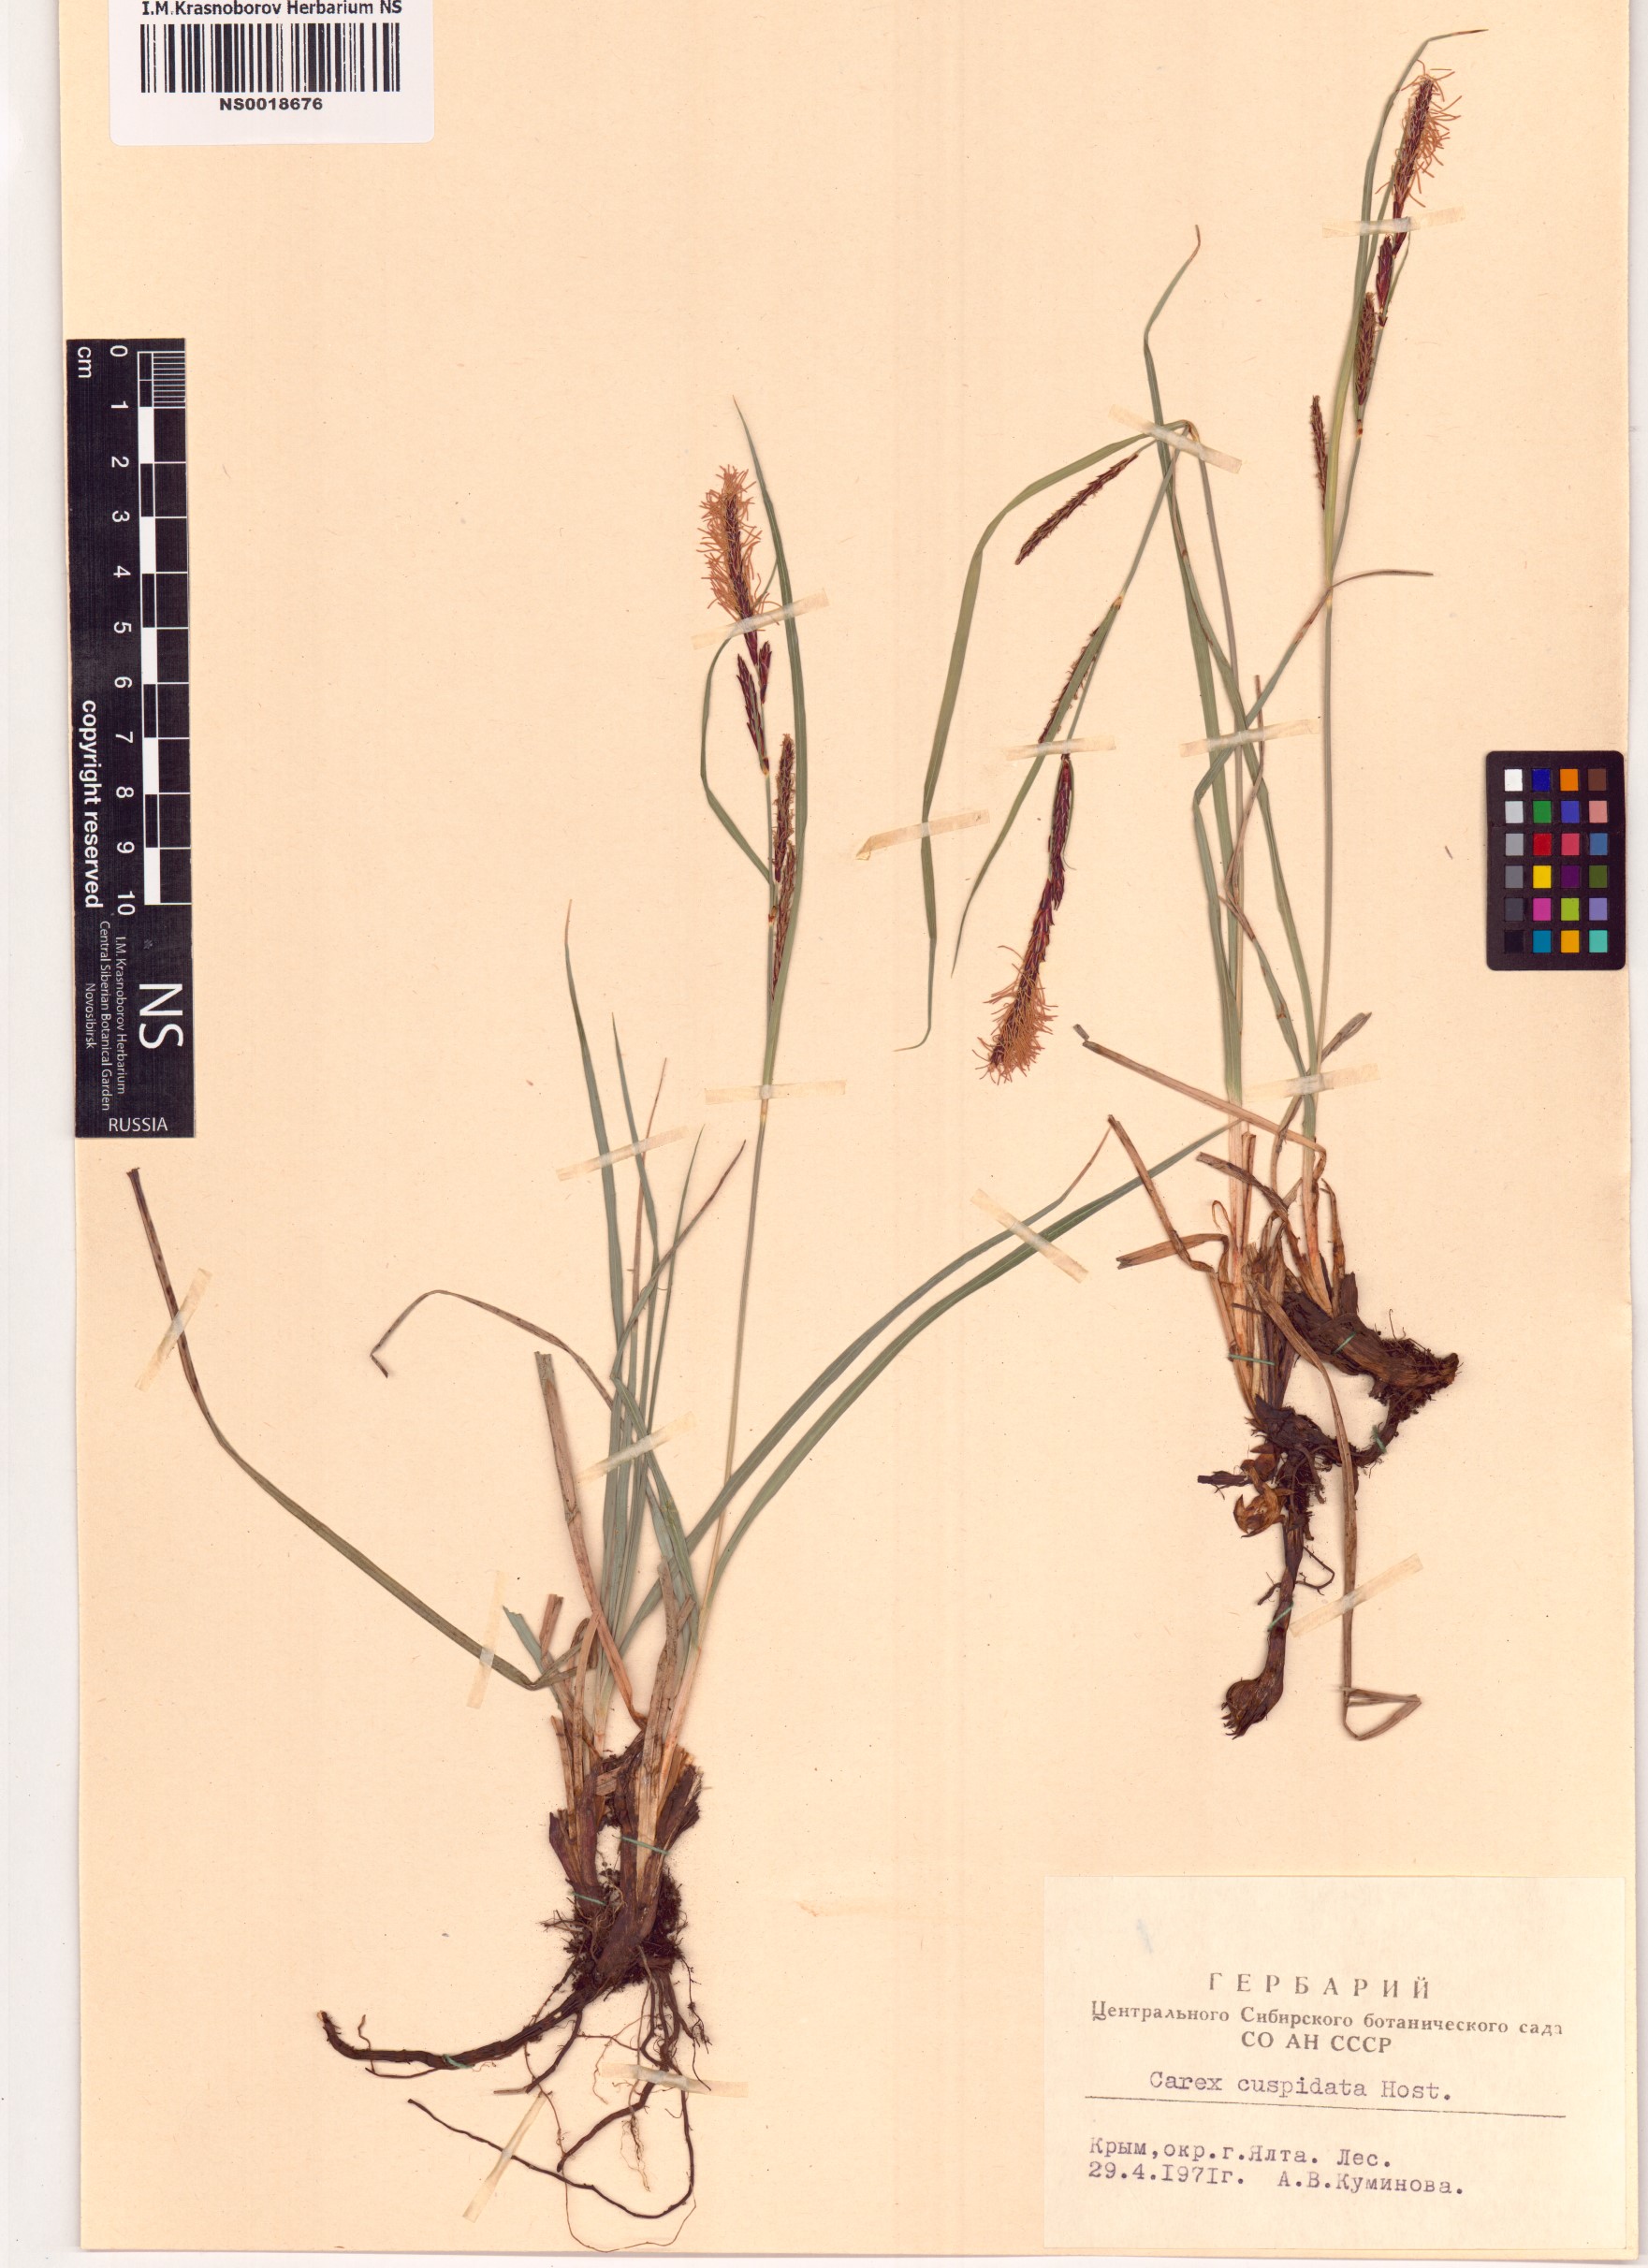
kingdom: Plantae
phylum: Tracheophyta
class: Liliopsida
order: Poales
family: Cyperaceae
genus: Carex
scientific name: Carex flacca
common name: Glaucous sedge
